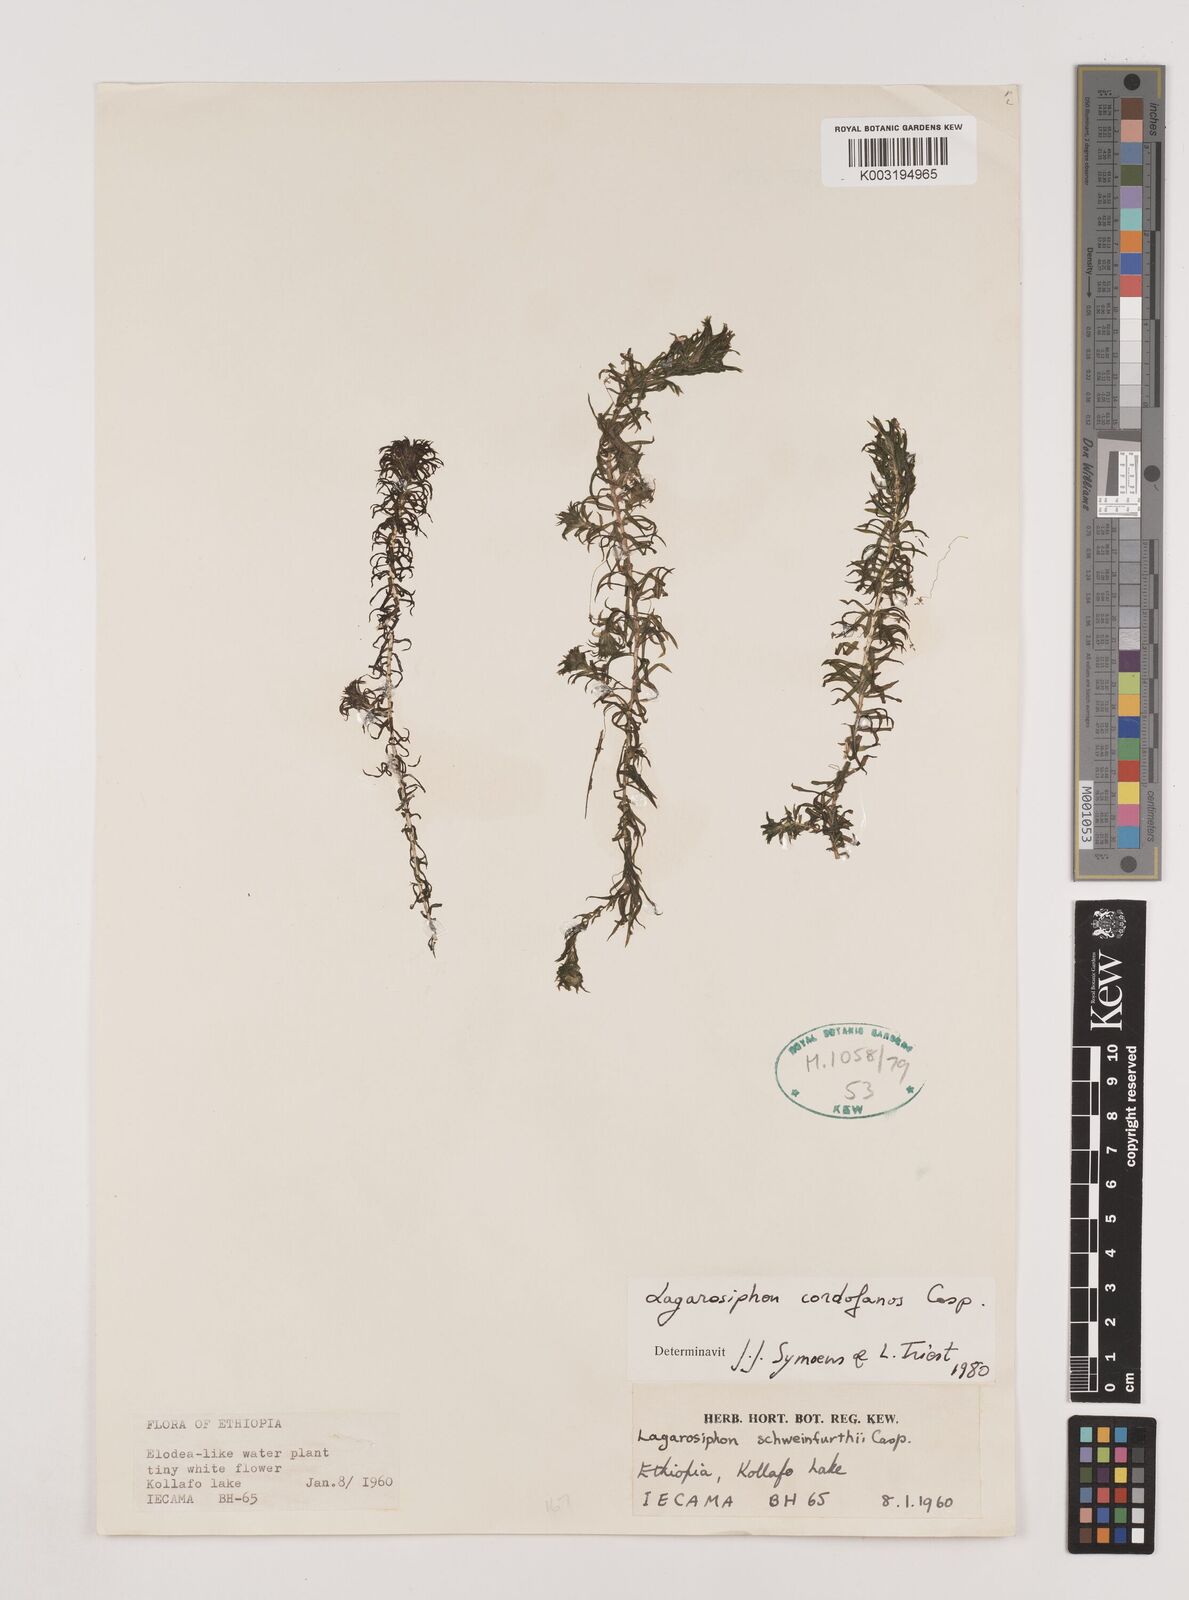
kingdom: Plantae
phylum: Tracheophyta
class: Liliopsida
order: Alismatales
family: Hydrocharitaceae
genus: Lagarosiphon
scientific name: Lagarosiphon cordofanus
